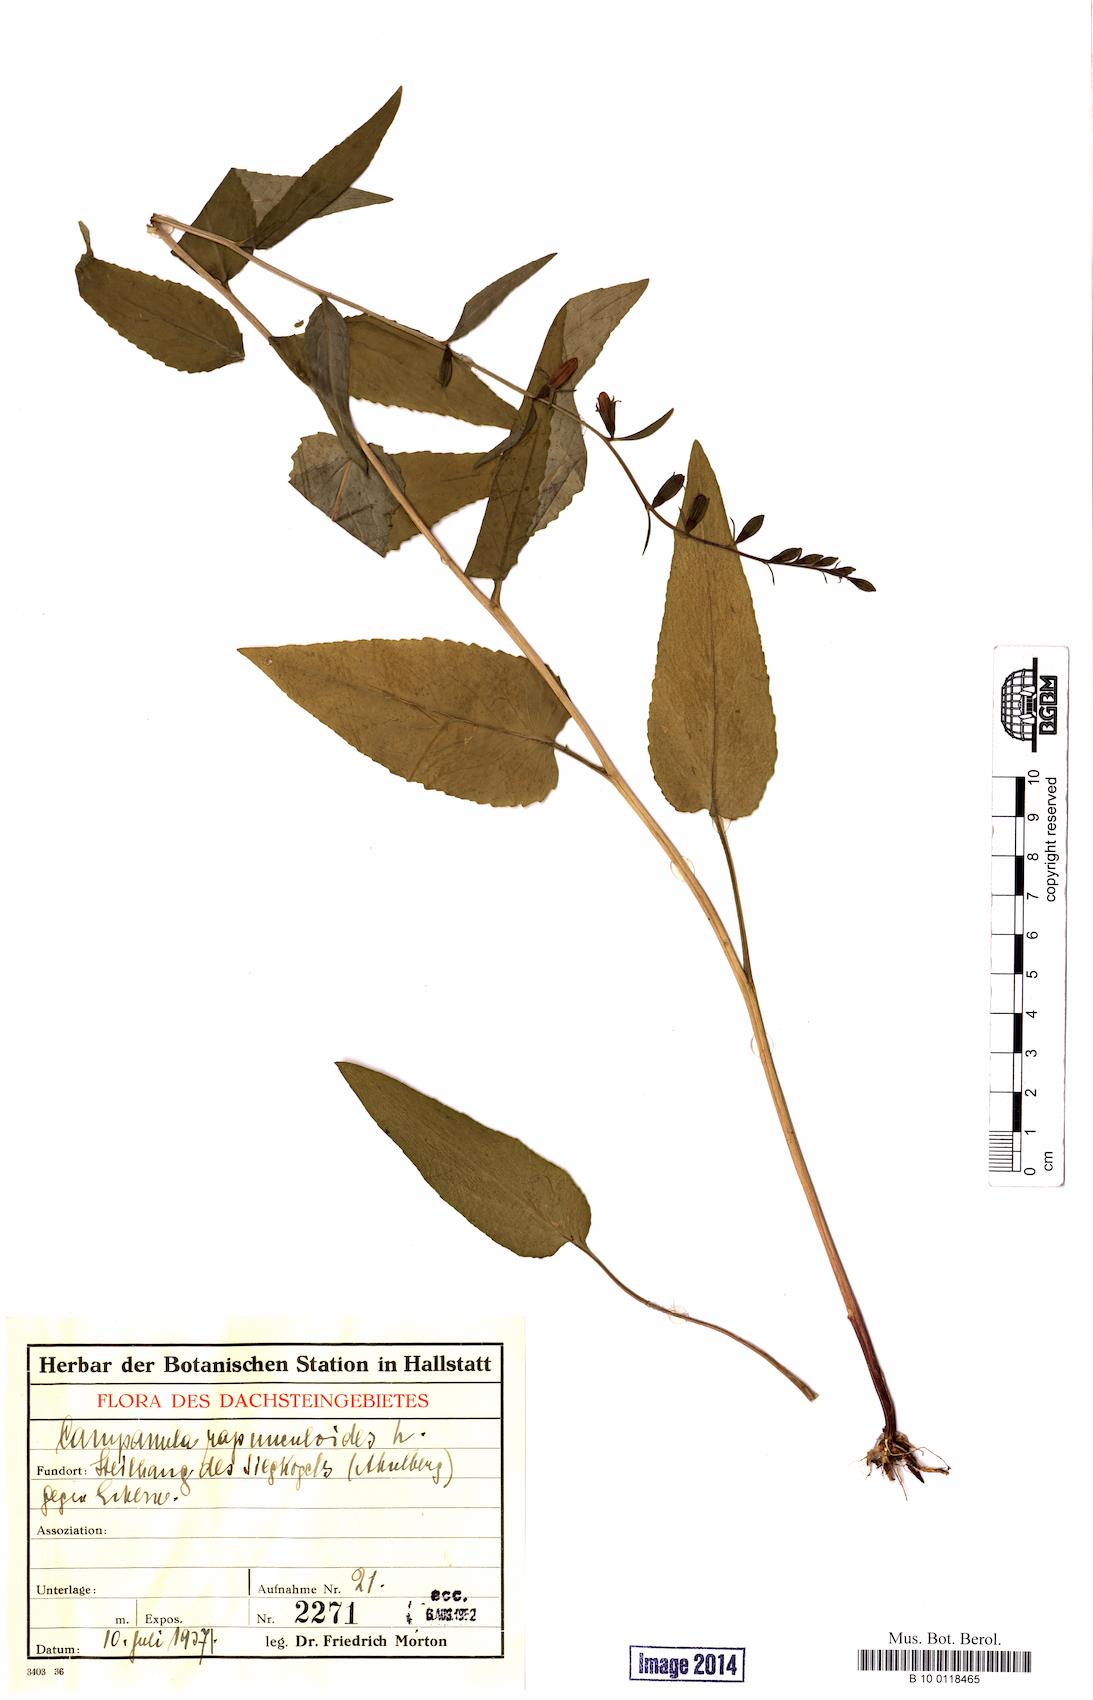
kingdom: Plantae
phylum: Tracheophyta
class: Magnoliopsida
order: Asterales
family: Campanulaceae
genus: Campanula
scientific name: Campanula rapunculoides
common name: Creeping bellflower
